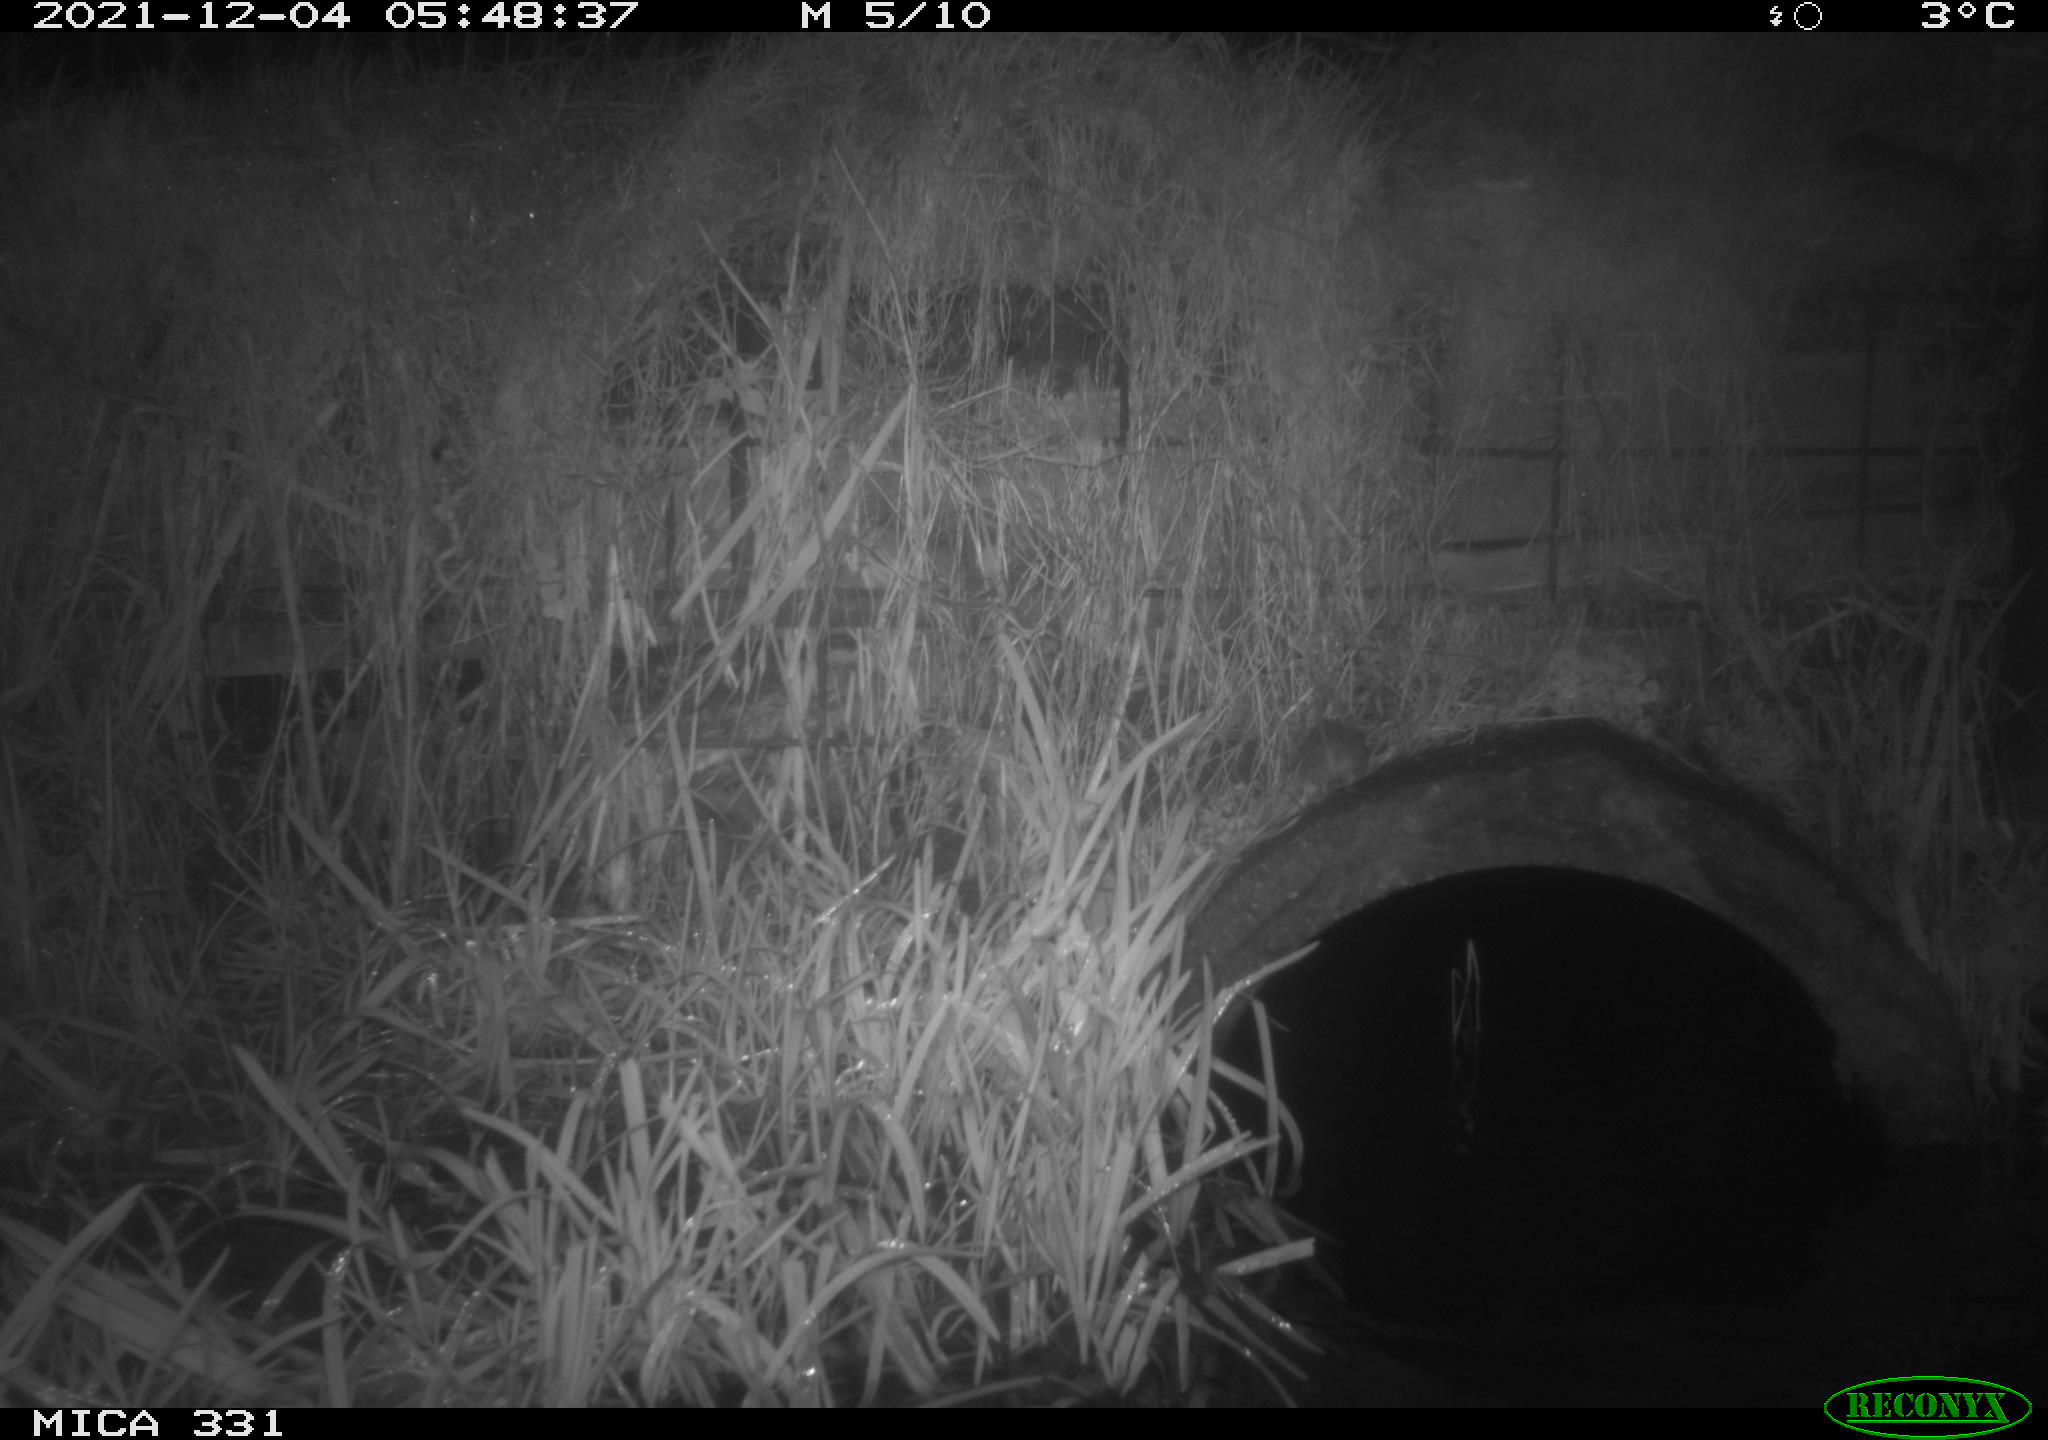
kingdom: Animalia
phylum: Chordata
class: Mammalia
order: Rodentia
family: Muridae
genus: Rattus
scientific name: Rattus norvegicus
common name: Brown rat
